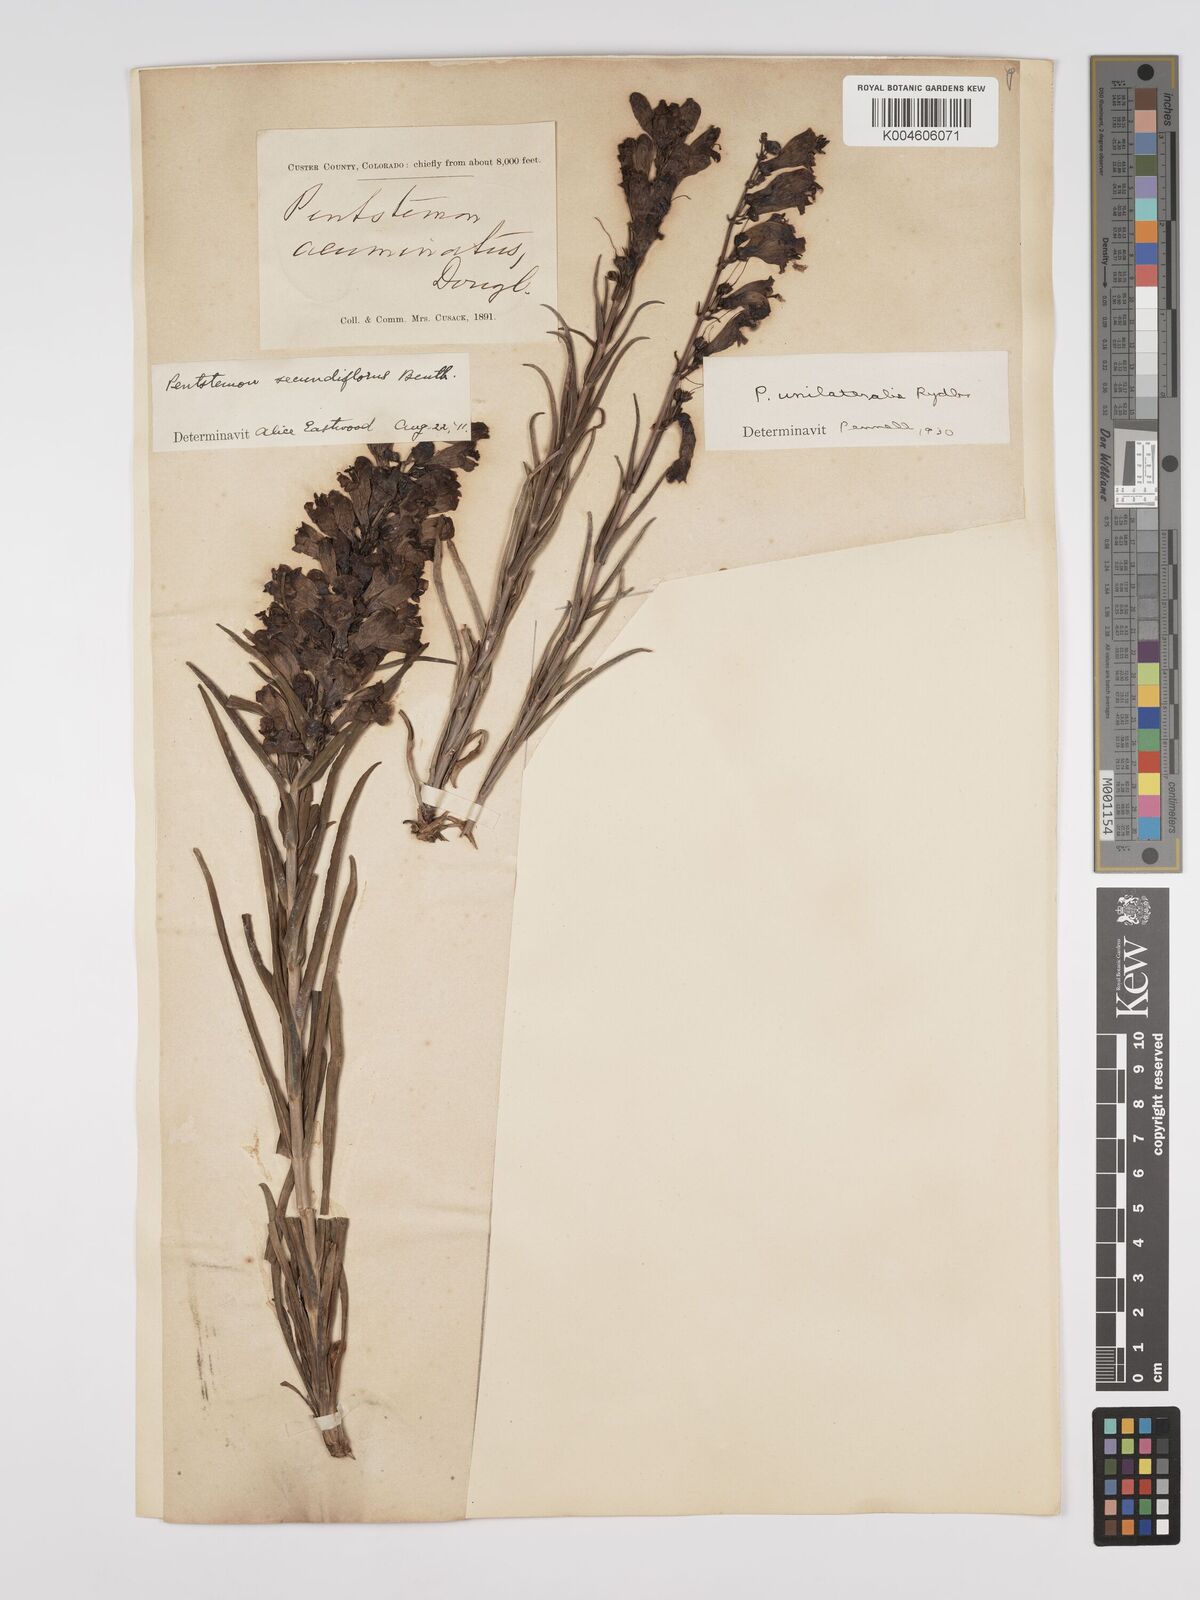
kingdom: Plantae
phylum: Tracheophyta
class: Magnoliopsida
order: Lamiales
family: Plantaginaceae
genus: Penstemon
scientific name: Penstemon unilateralis
